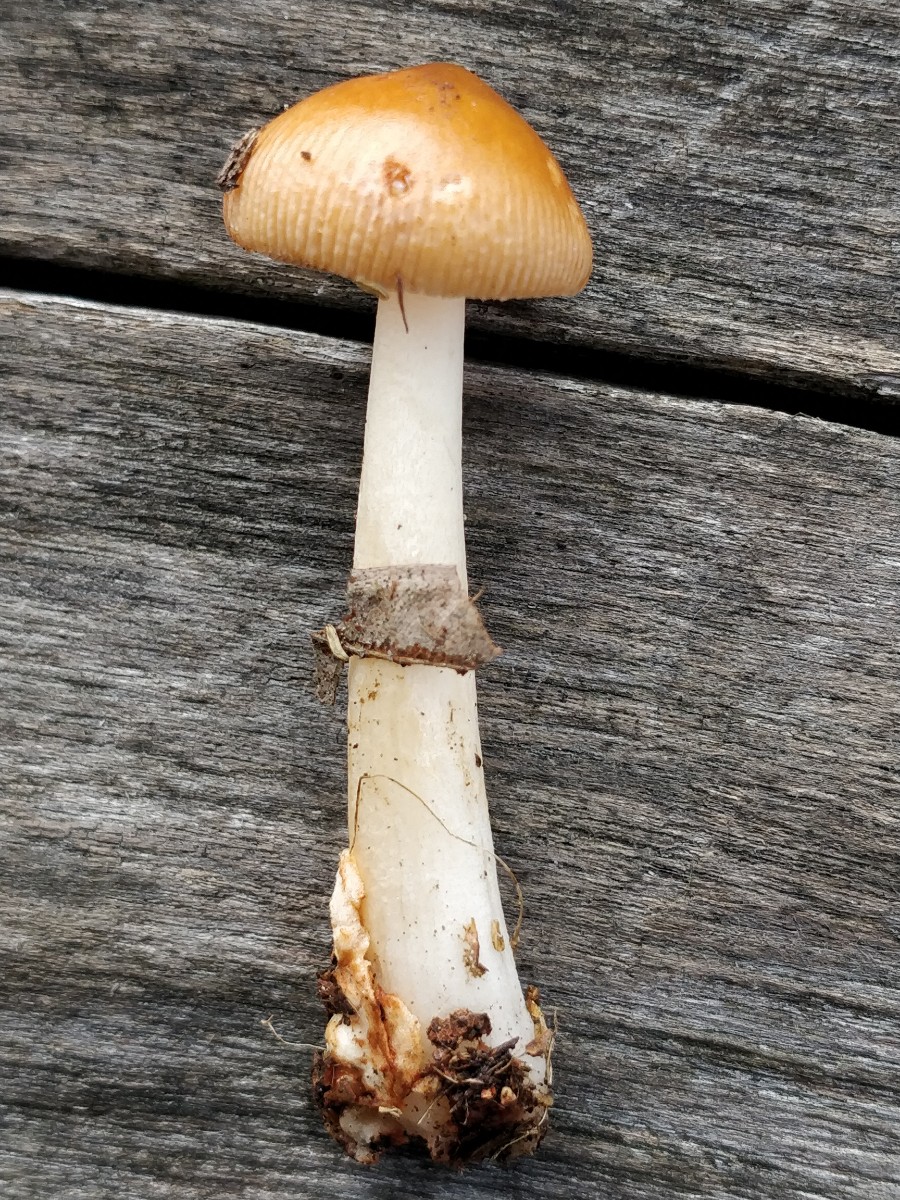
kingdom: Fungi
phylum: Basidiomycota
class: Agaricomycetes
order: Agaricales
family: Amanitaceae
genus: Amanita
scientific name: Amanita fulva
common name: brun kam-fluesvamp
